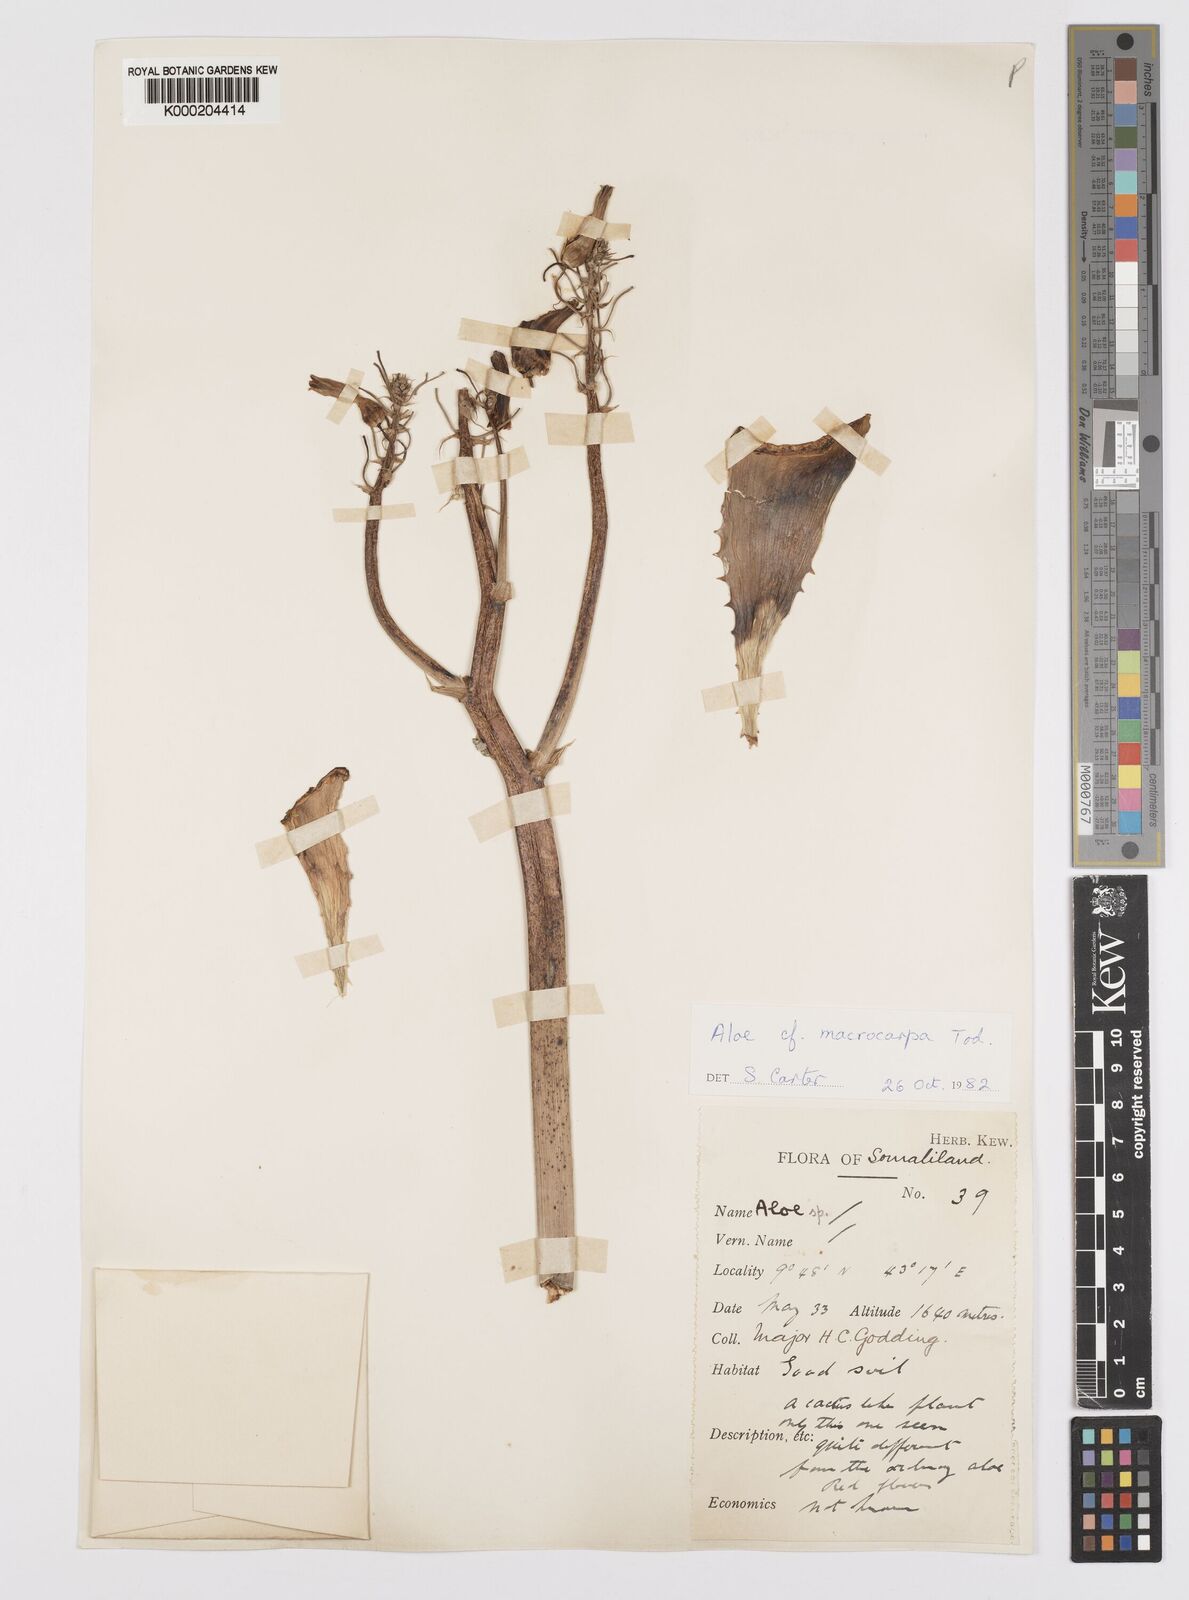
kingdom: Plantae
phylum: Tracheophyta
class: Liliopsida
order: Asparagales
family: Asphodelaceae
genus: Aloe
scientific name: Aloe macrocarpa
